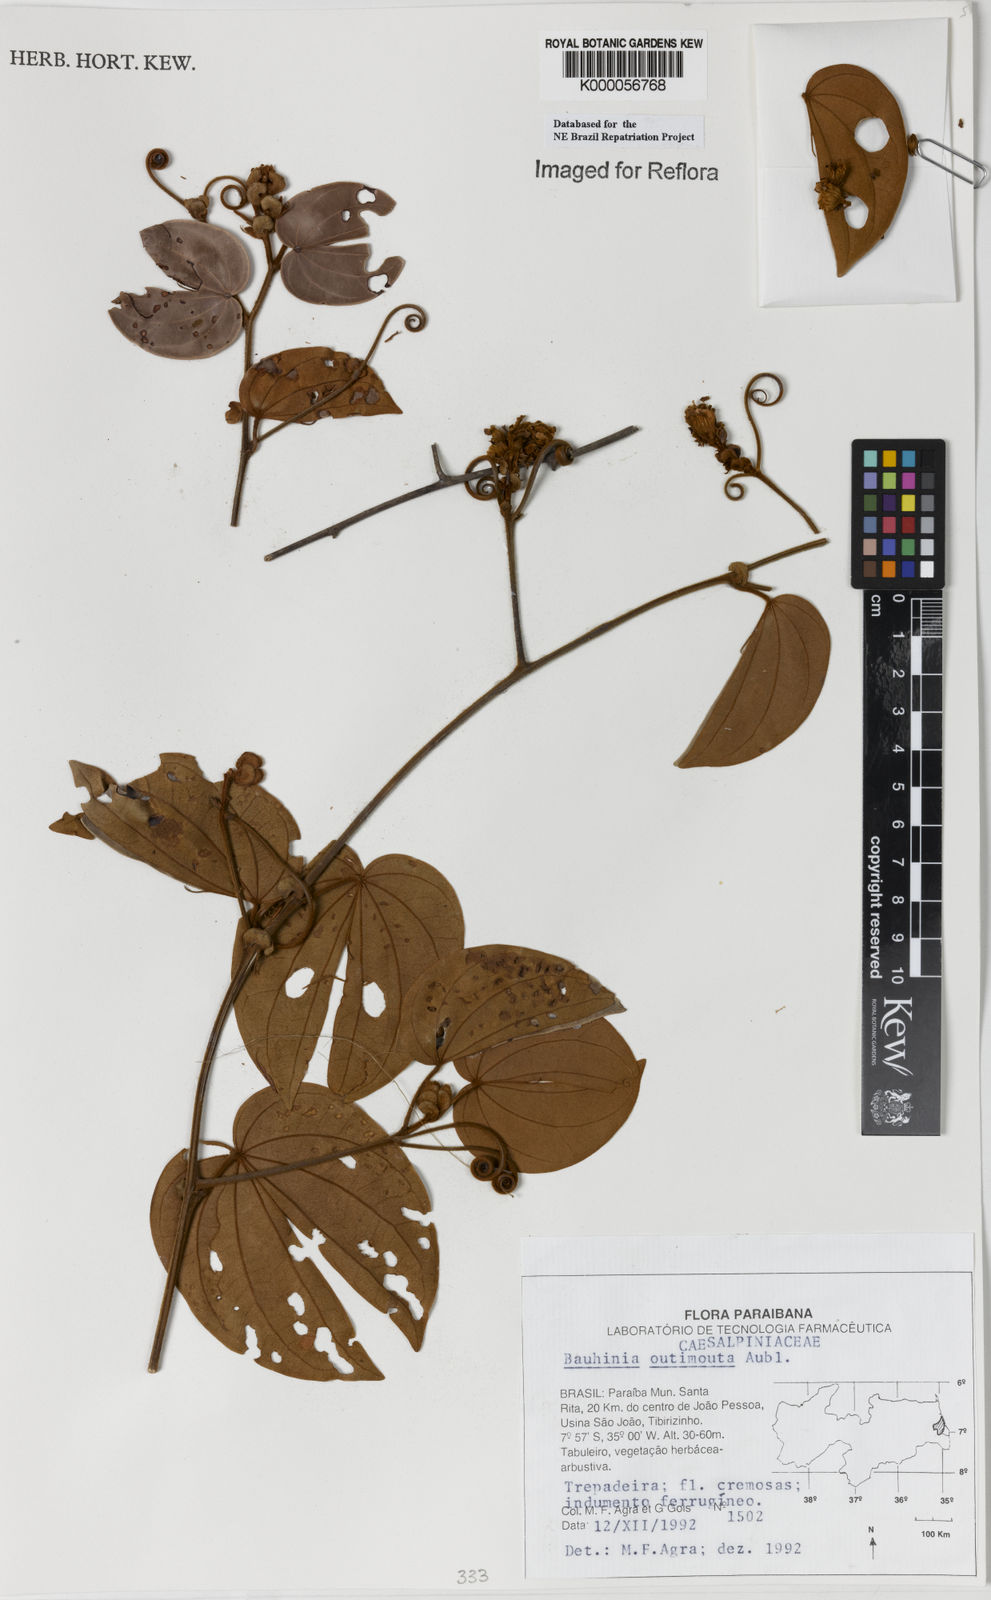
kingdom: Plantae
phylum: Tracheophyta
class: Magnoliopsida
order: Fabales
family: Fabaceae
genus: Schnella
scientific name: Schnella outimouta
